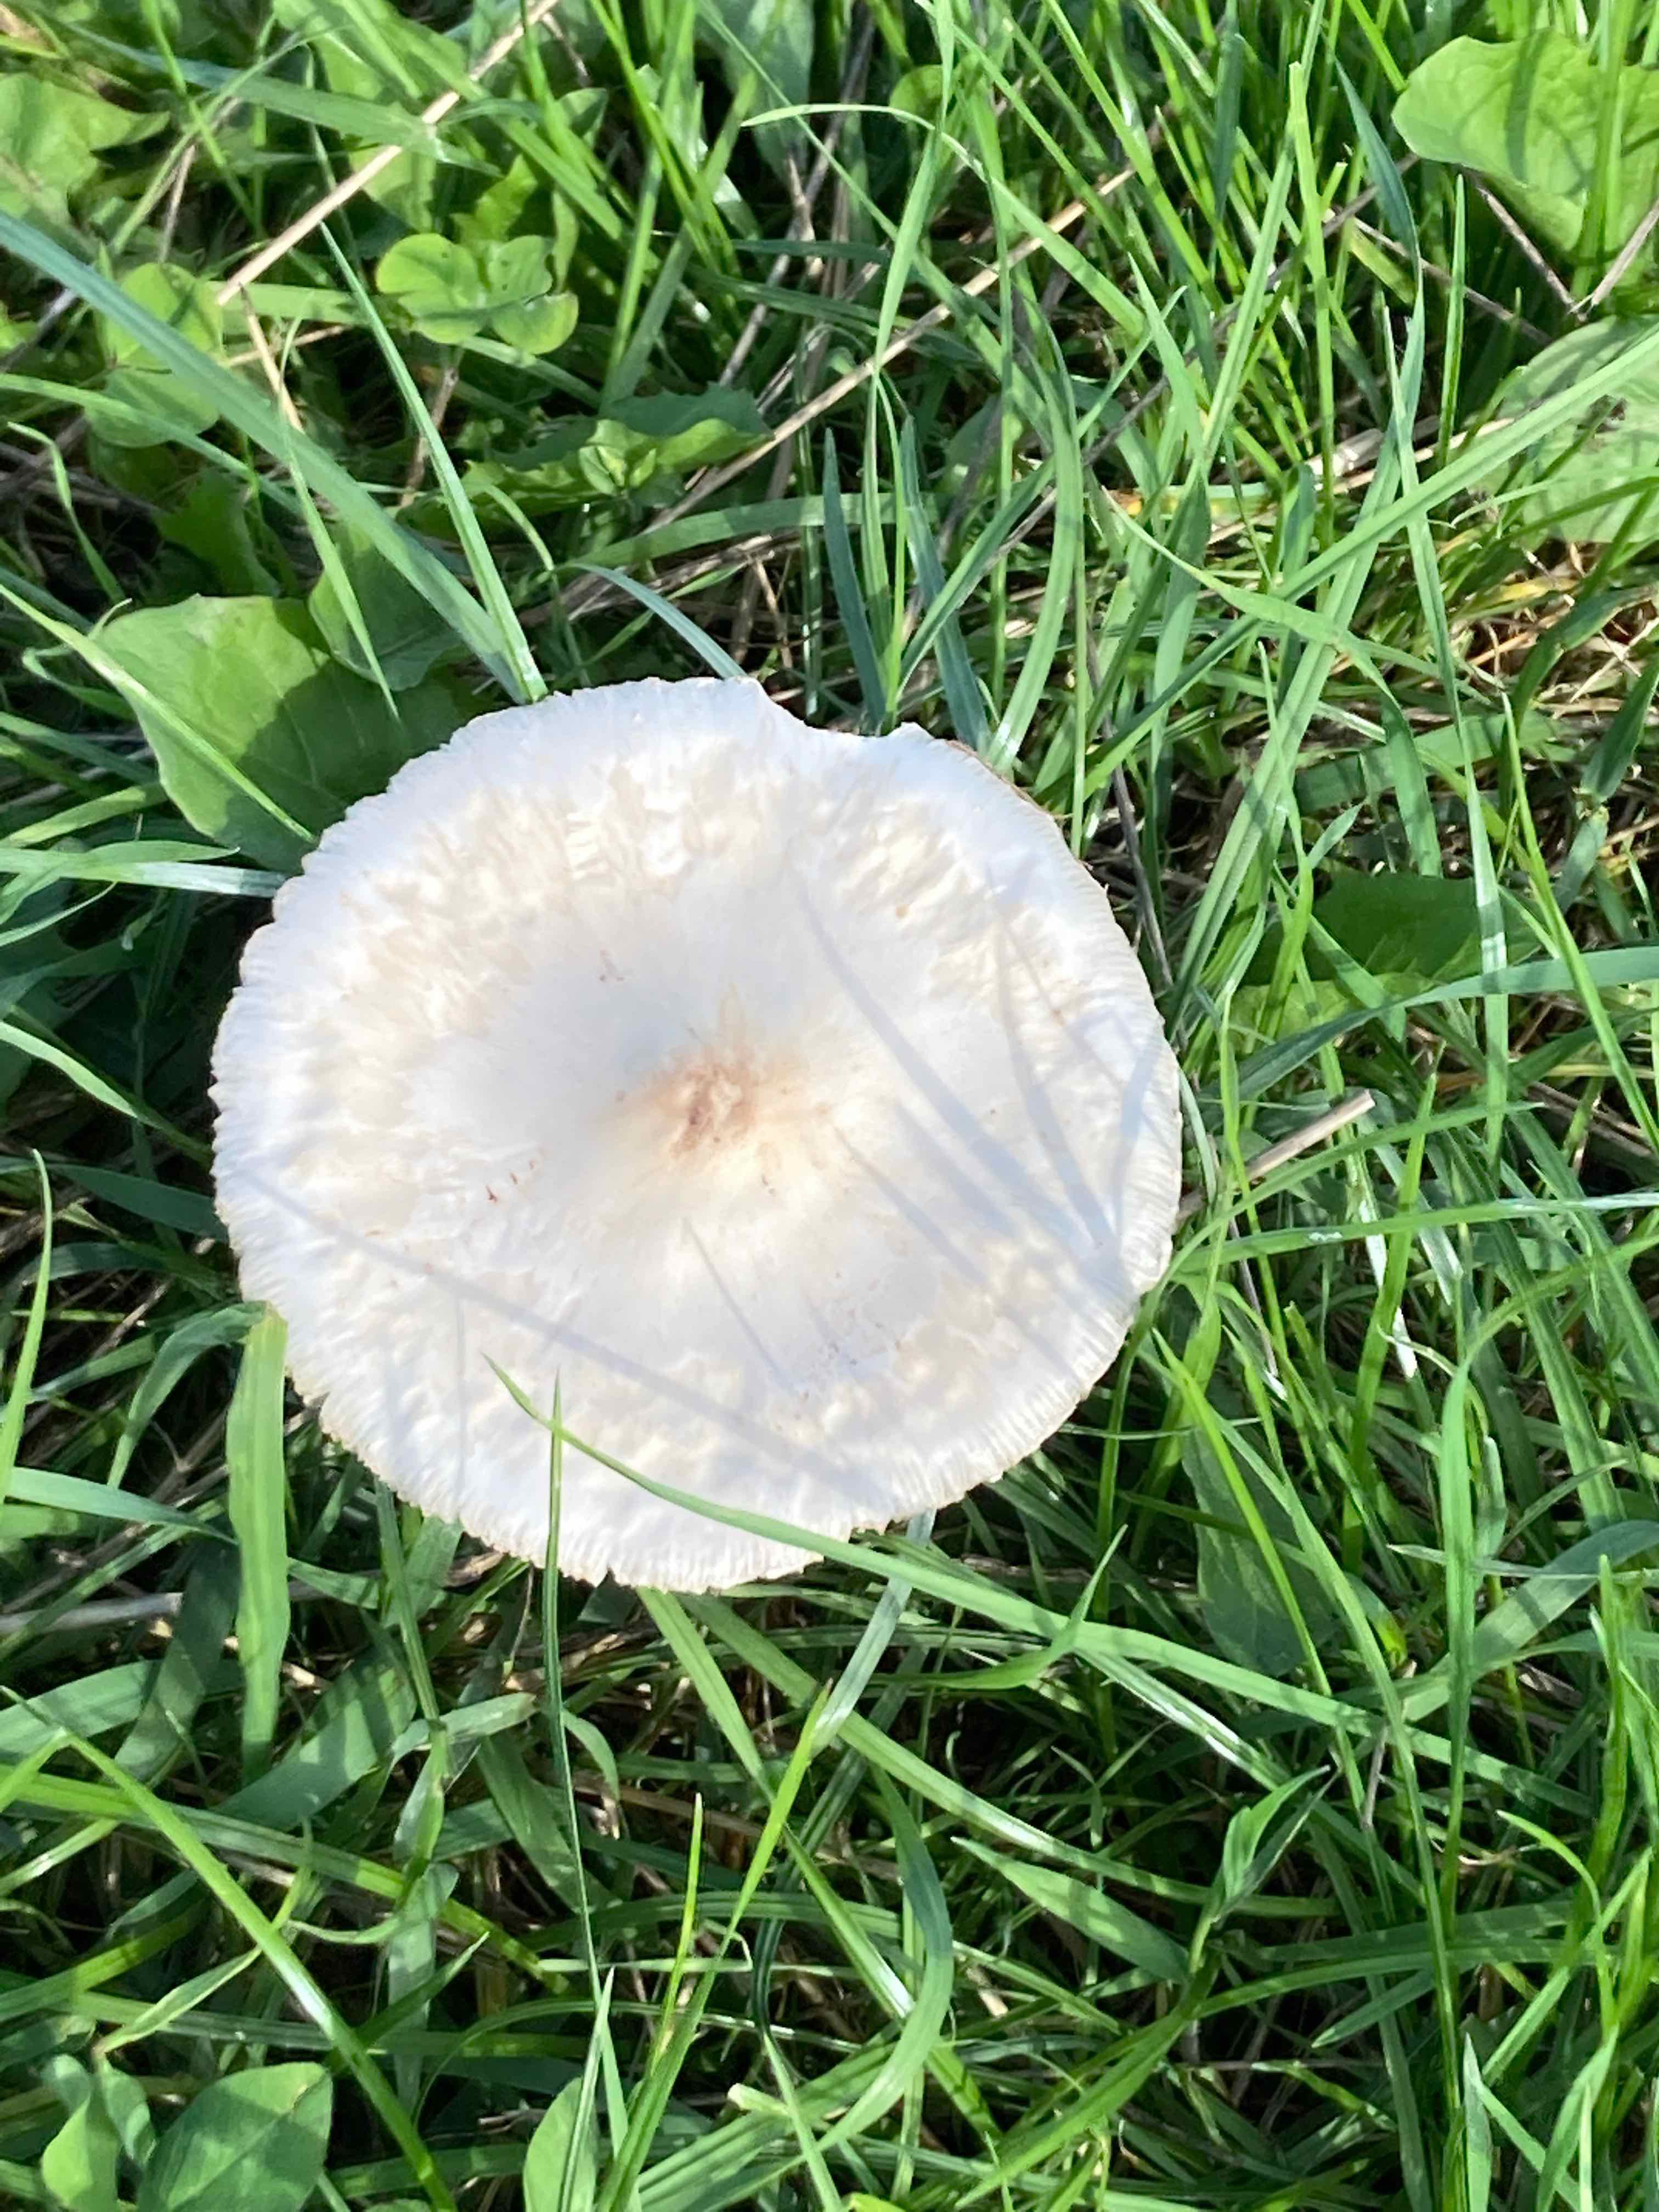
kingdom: Fungi
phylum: Basidiomycota
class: Agaricomycetes
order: Agaricales
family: Agaricaceae
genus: Macrolepiota
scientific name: Macrolepiota excoriata
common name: mark-kæmpeparasolhat
